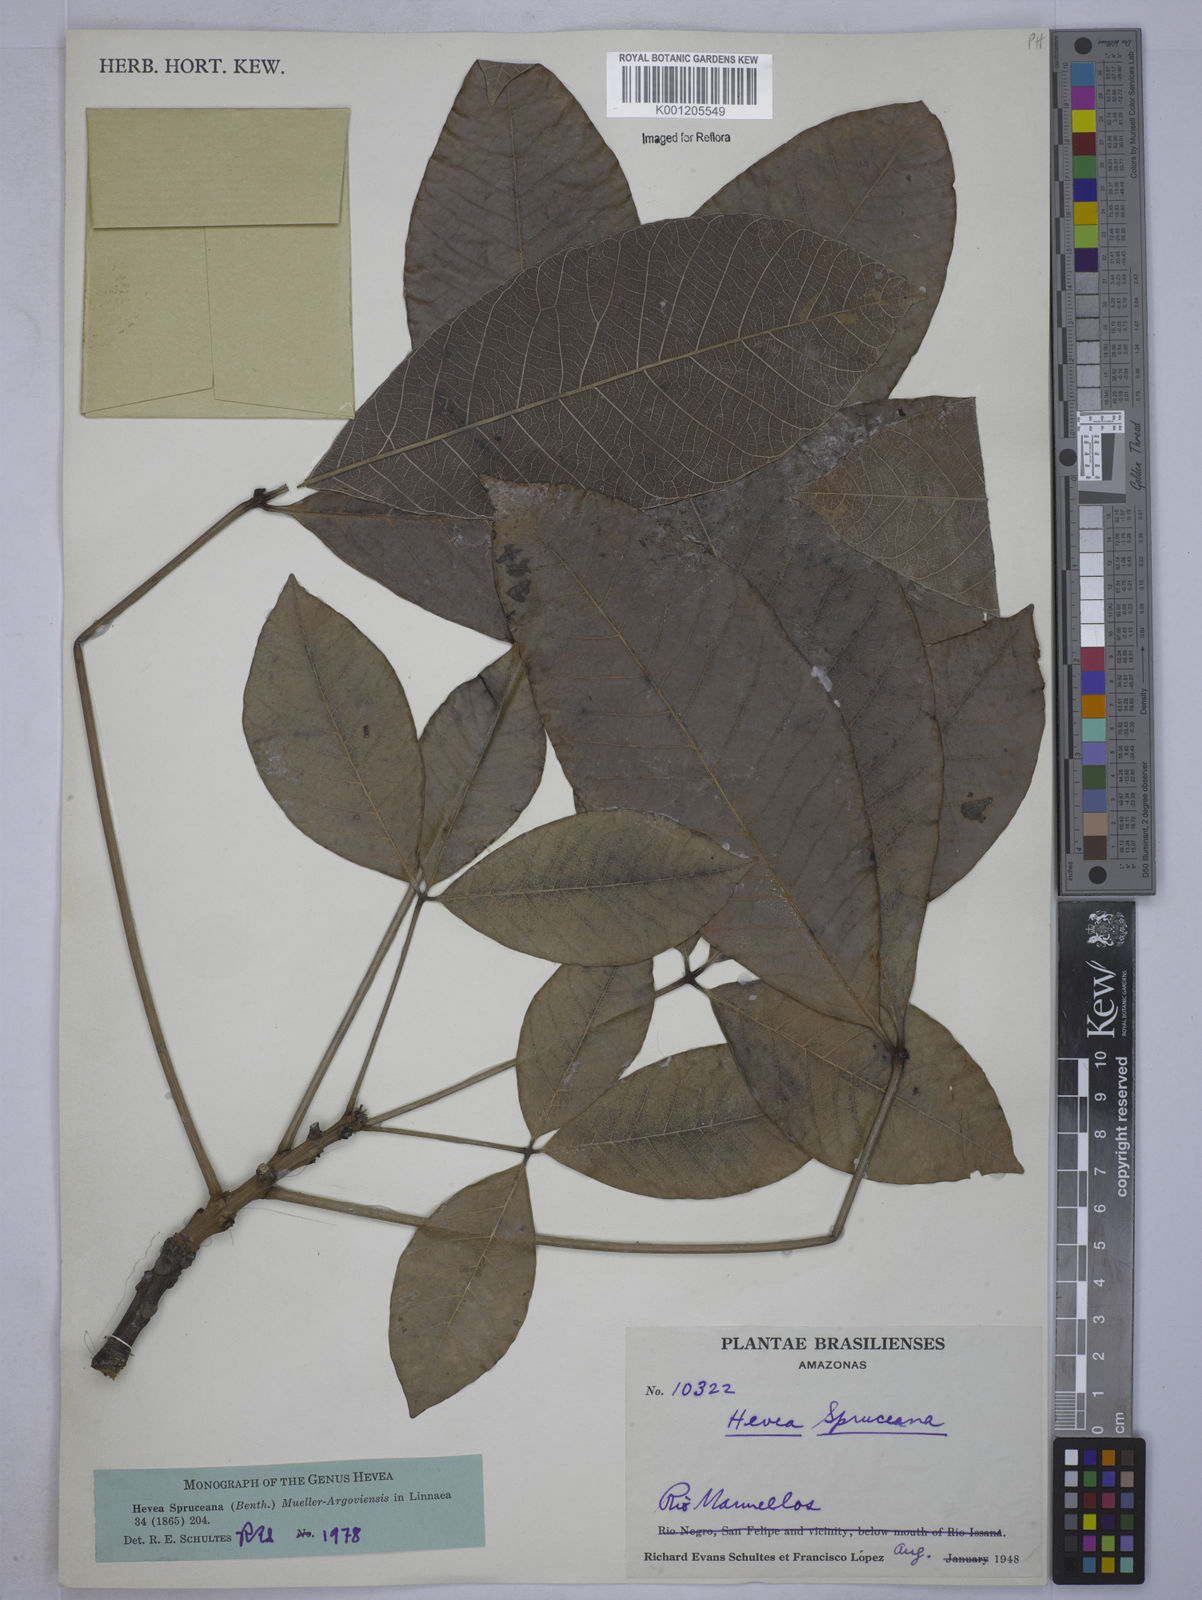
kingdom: Plantae
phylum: Tracheophyta
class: Magnoliopsida
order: Malpighiales
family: Euphorbiaceae
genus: Hevea
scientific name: Hevea
